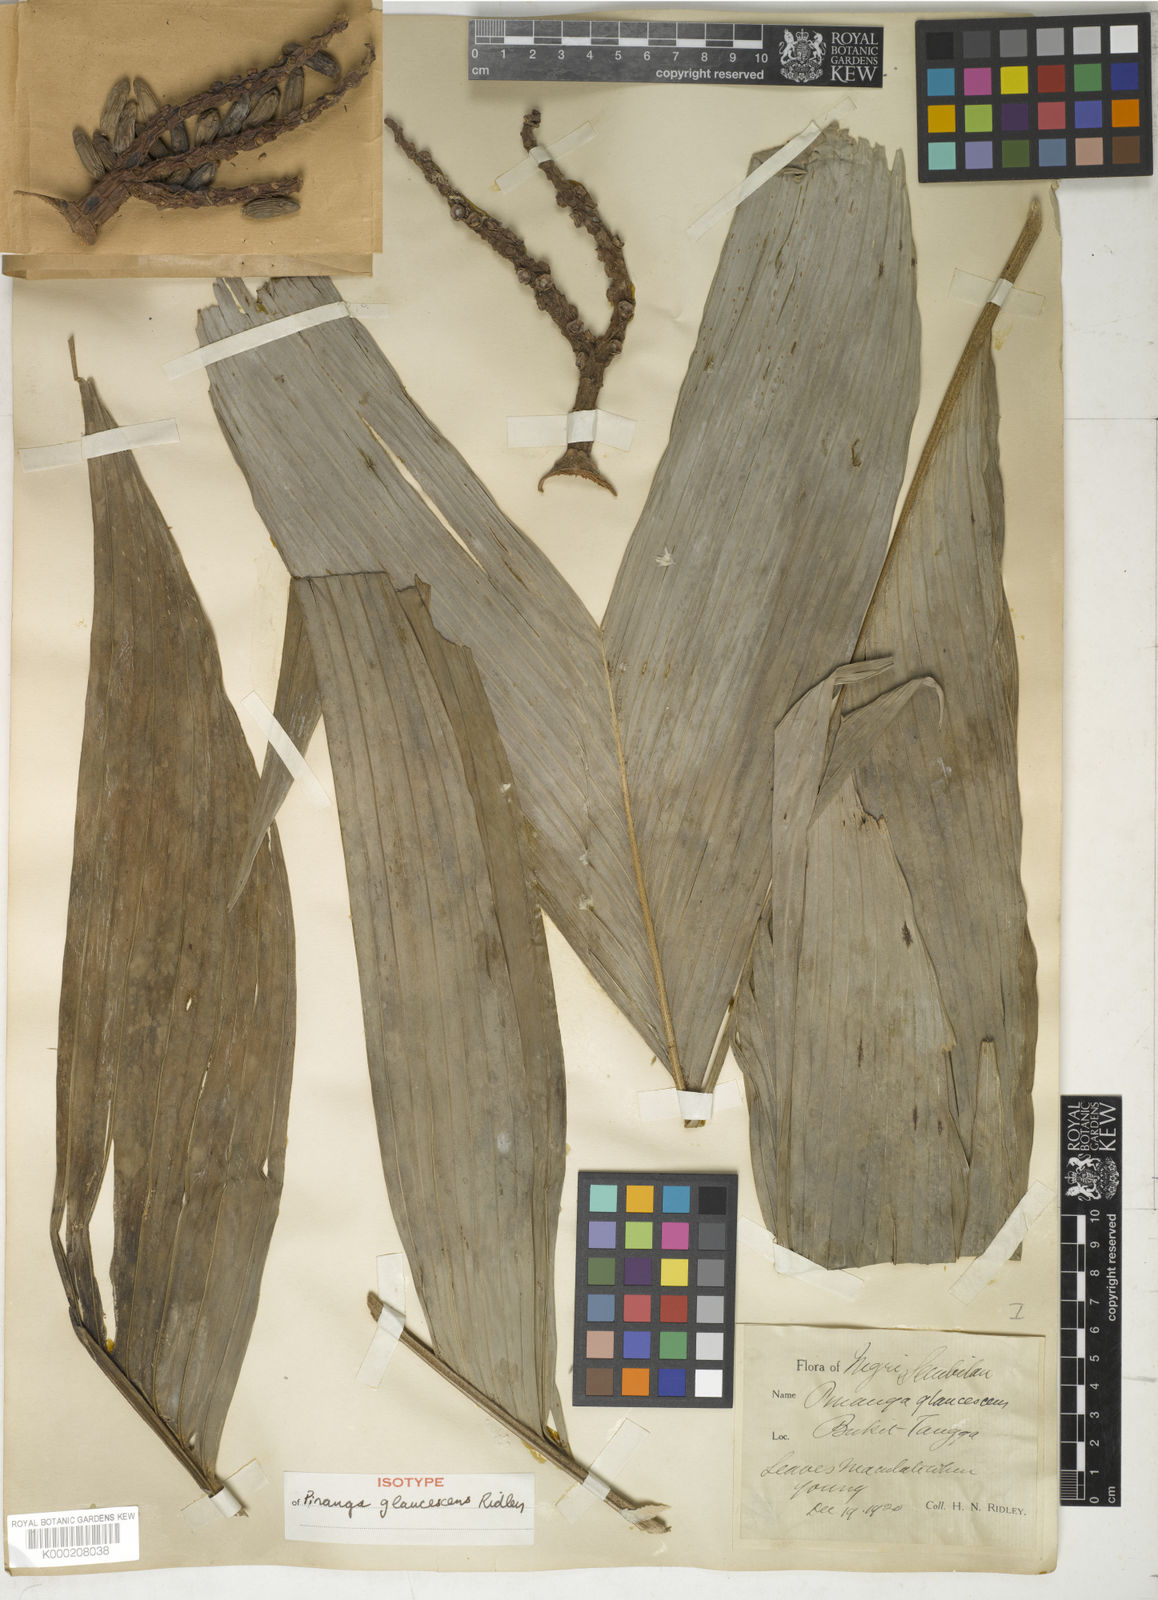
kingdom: Plantae
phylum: Tracheophyta
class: Liliopsida
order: Arecales
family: Arecaceae
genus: Pinanga
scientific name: Pinanga glaucescens
